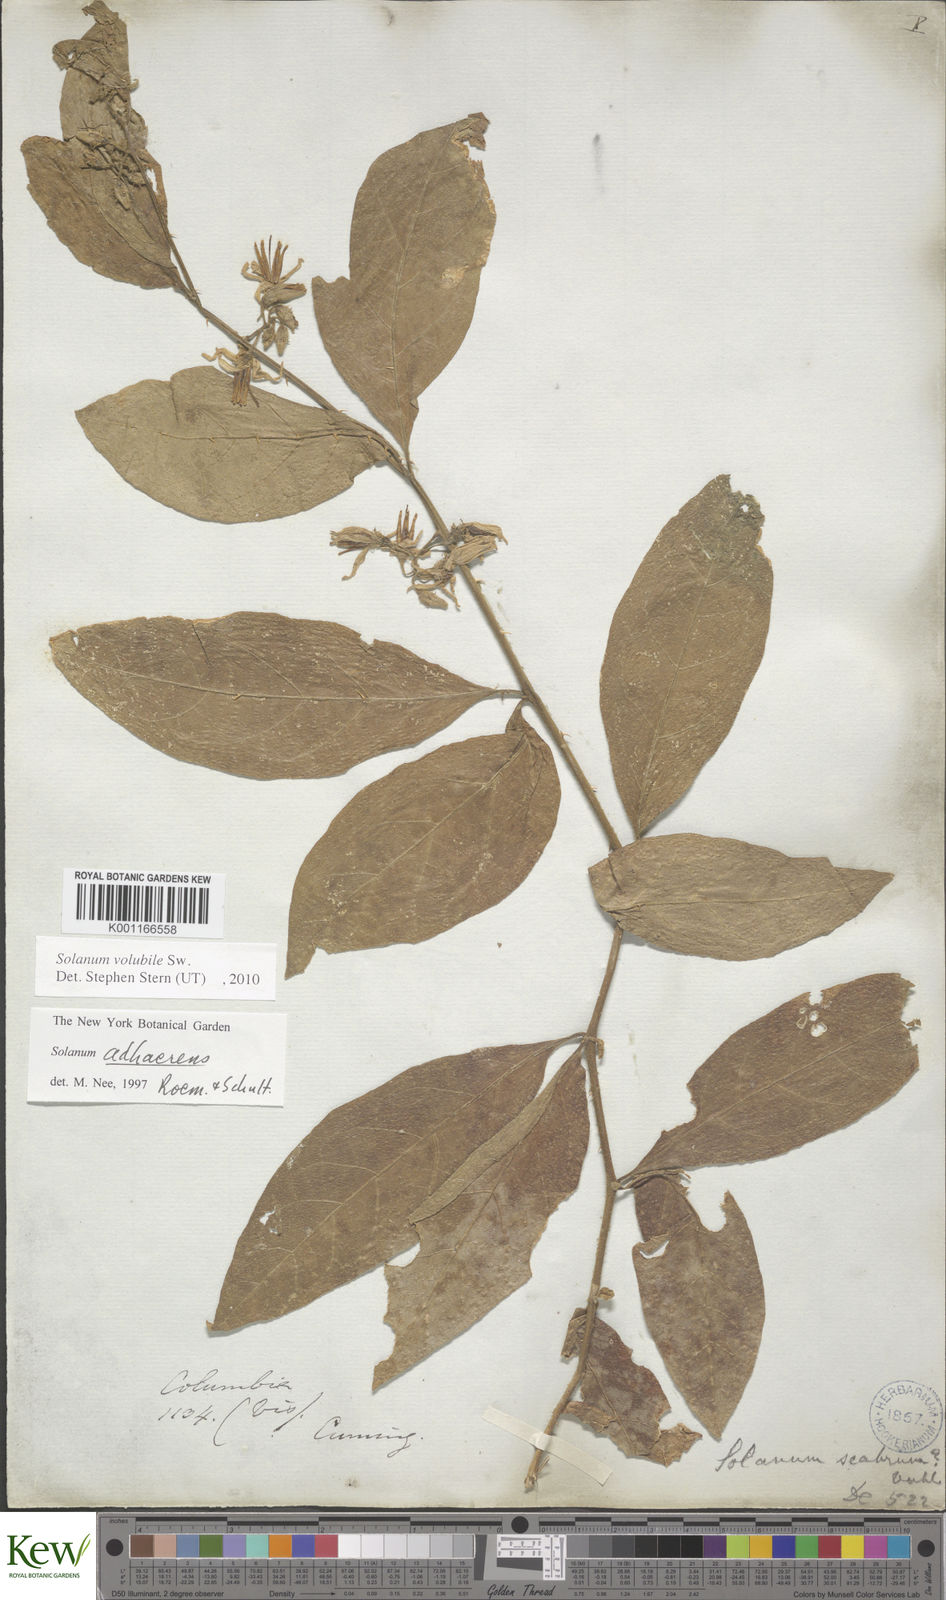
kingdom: Plantae
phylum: Tracheophyta
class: Magnoliopsida
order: Solanales
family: Solanaceae
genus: Solanum
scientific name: Solanum volubile
